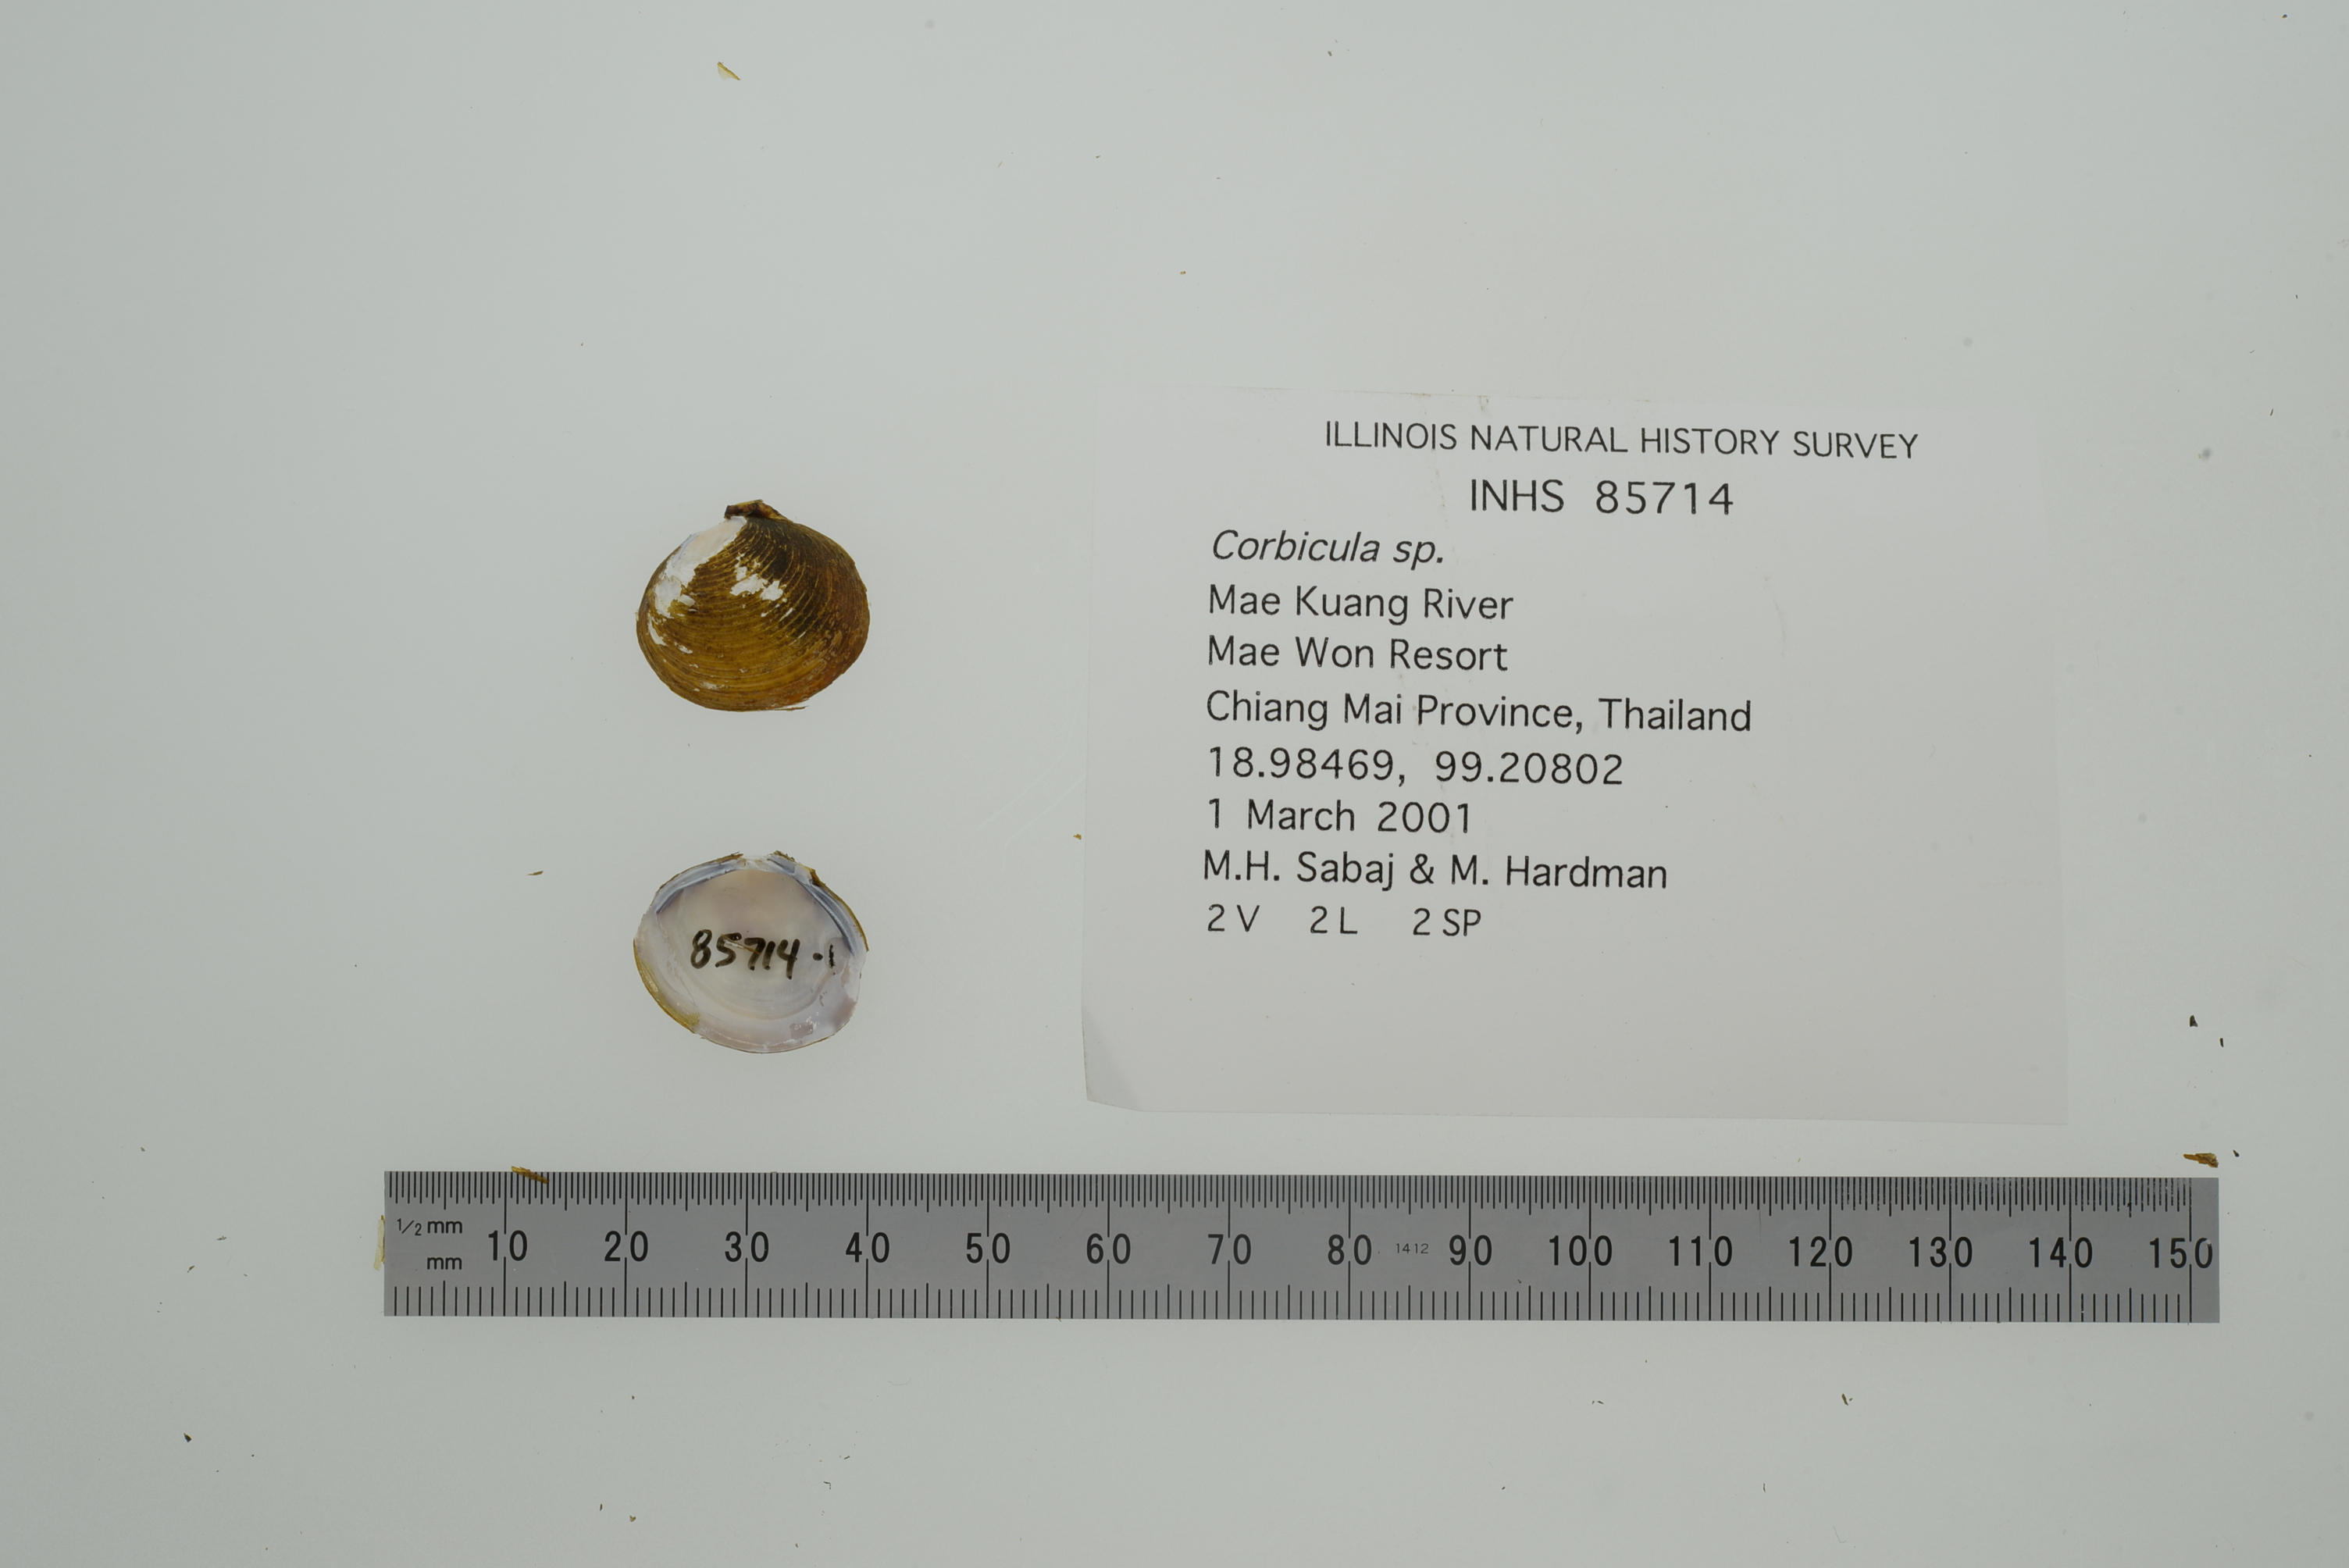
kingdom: Animalia
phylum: Mollusca
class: Bivalvia
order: Venerida
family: Cyrenidae
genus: Corbicula
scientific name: Corbicula
